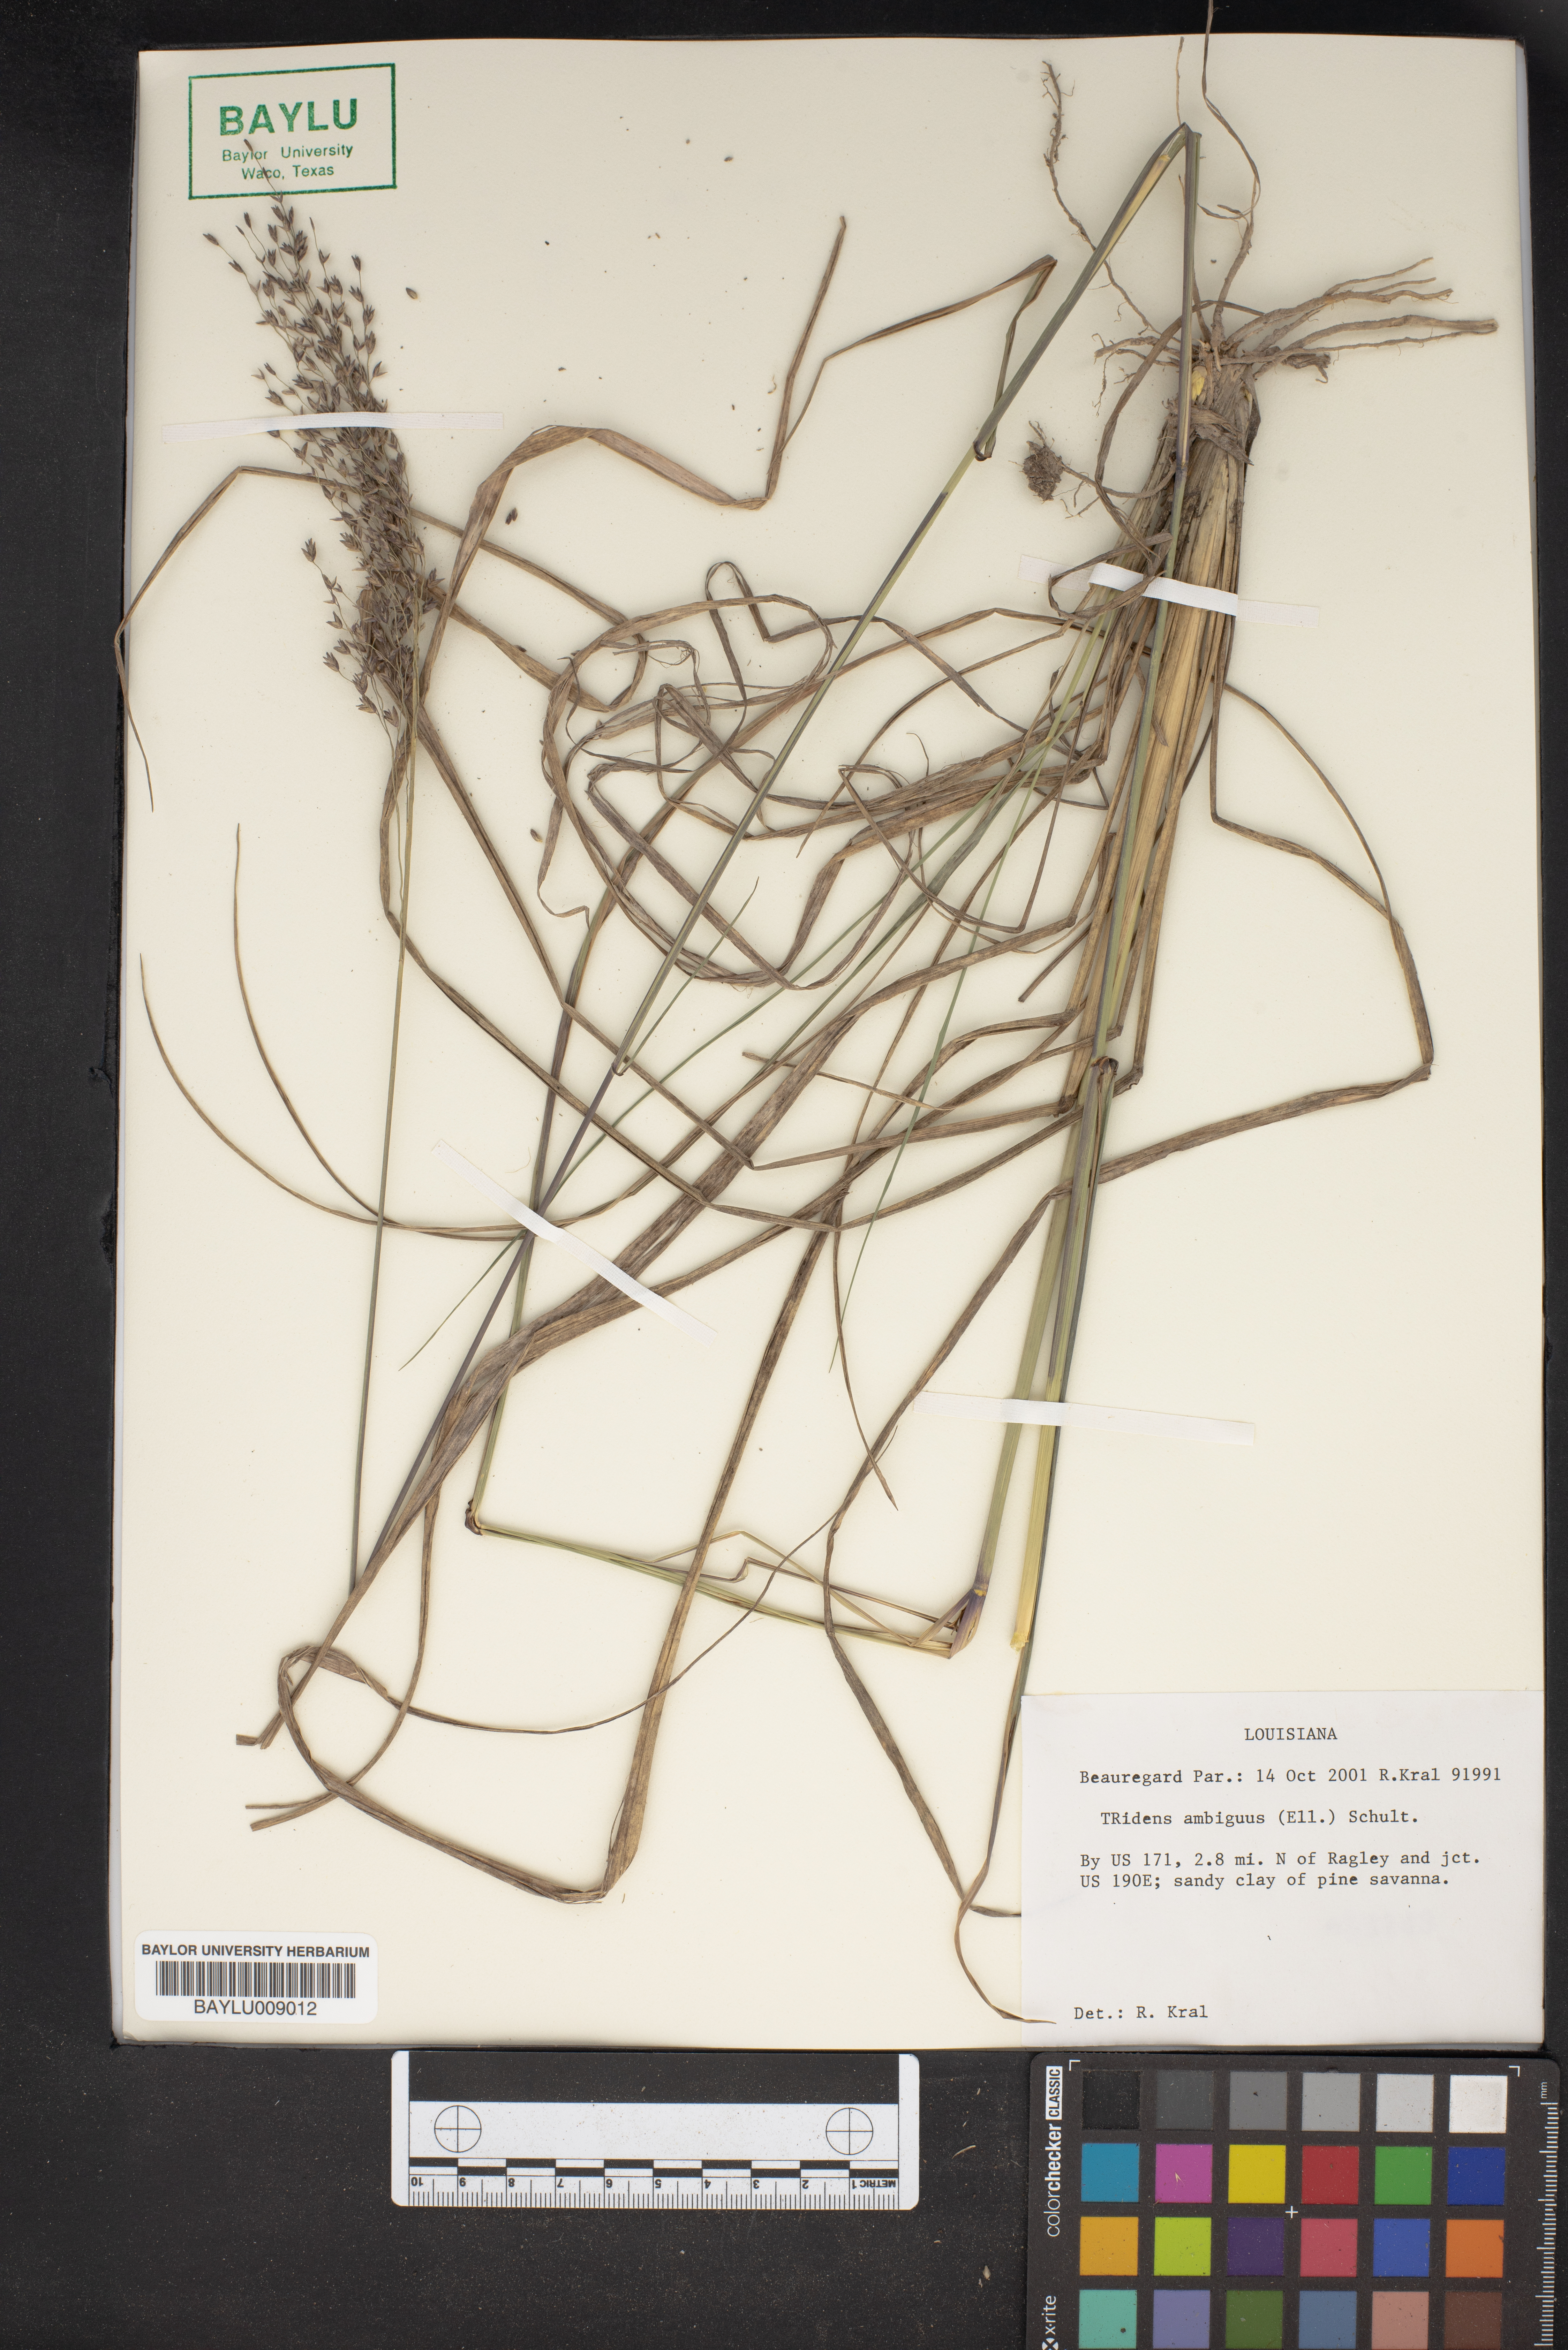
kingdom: Plantae
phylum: Tracheophyta
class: Liliopsida
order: Poales
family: Poaceae
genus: Tridens
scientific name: Tridens ambiguus
